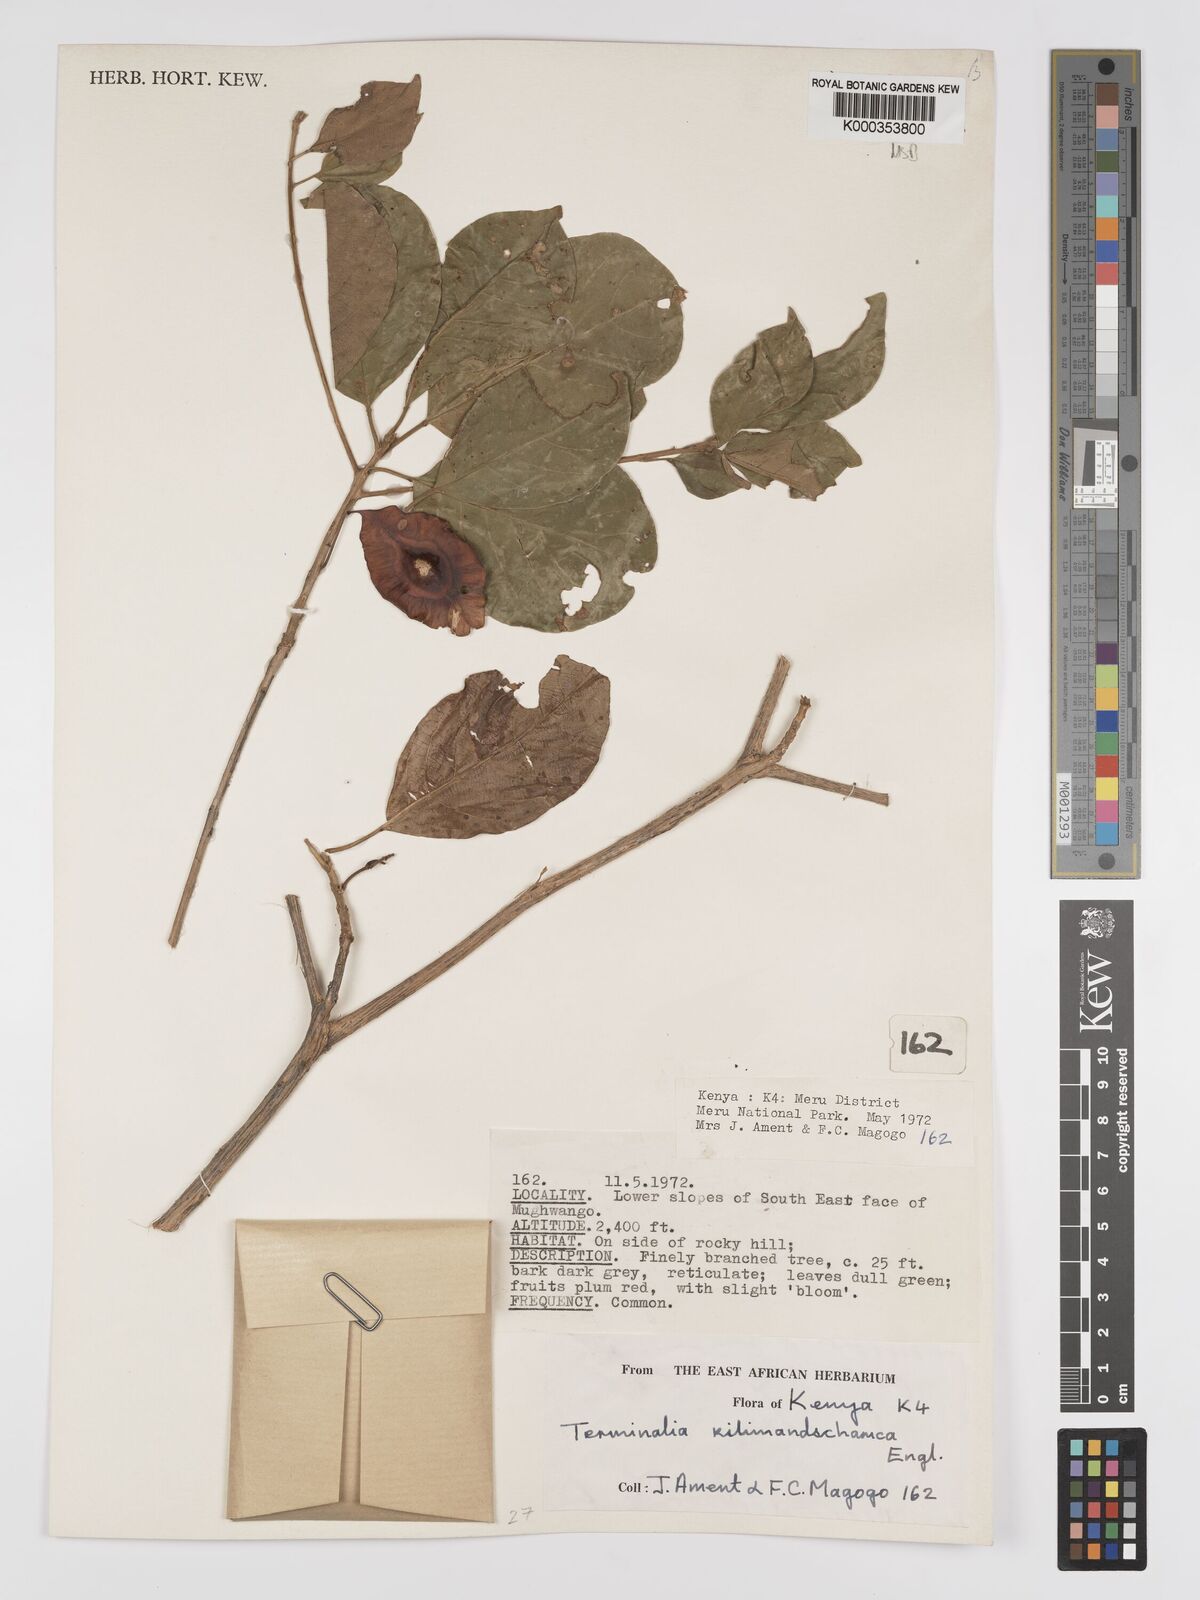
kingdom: Plantae
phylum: Tracheophyta
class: Magnoliopsida
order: Myrtales
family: Combretaceae
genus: Terminalia
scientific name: Terminalia kilimandscharica
